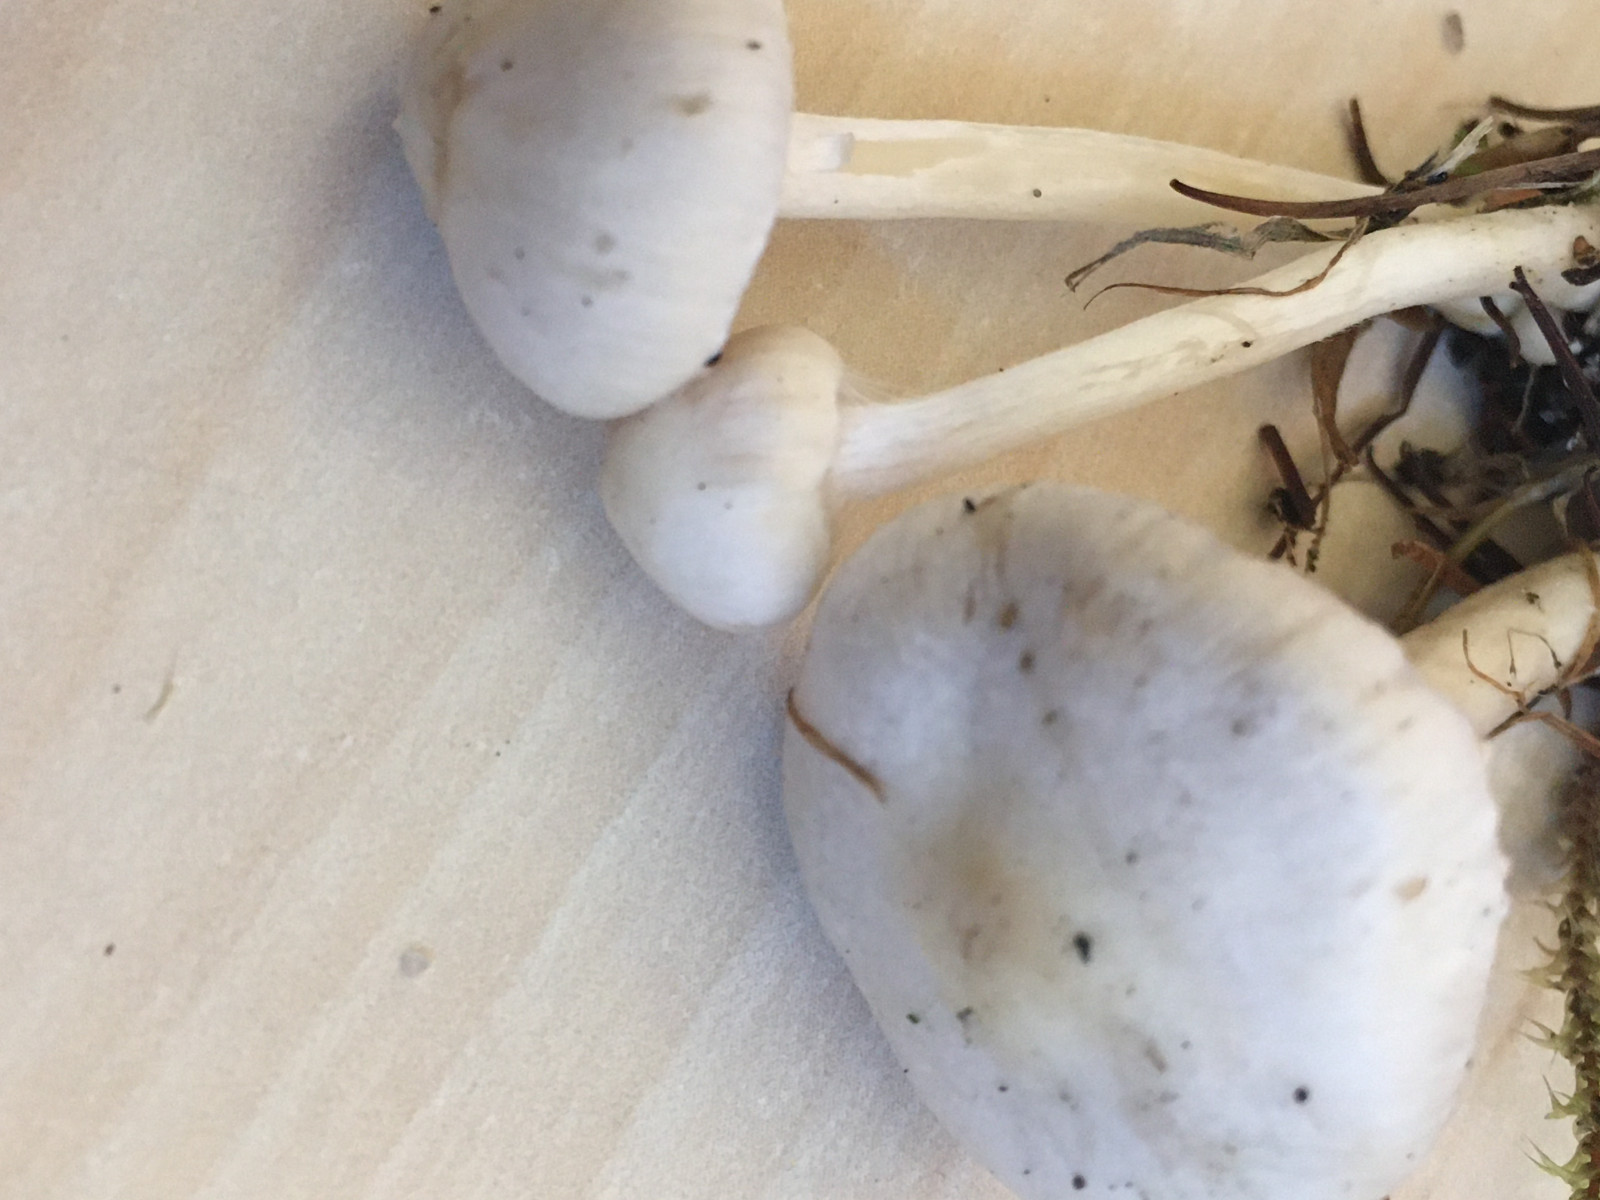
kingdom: Fungi
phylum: Basidiomycota
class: Agaricomycetes
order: Agaricales
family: Inocybaceae
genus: Inocybe
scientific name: Inocybe
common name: almindelig trævlhat
